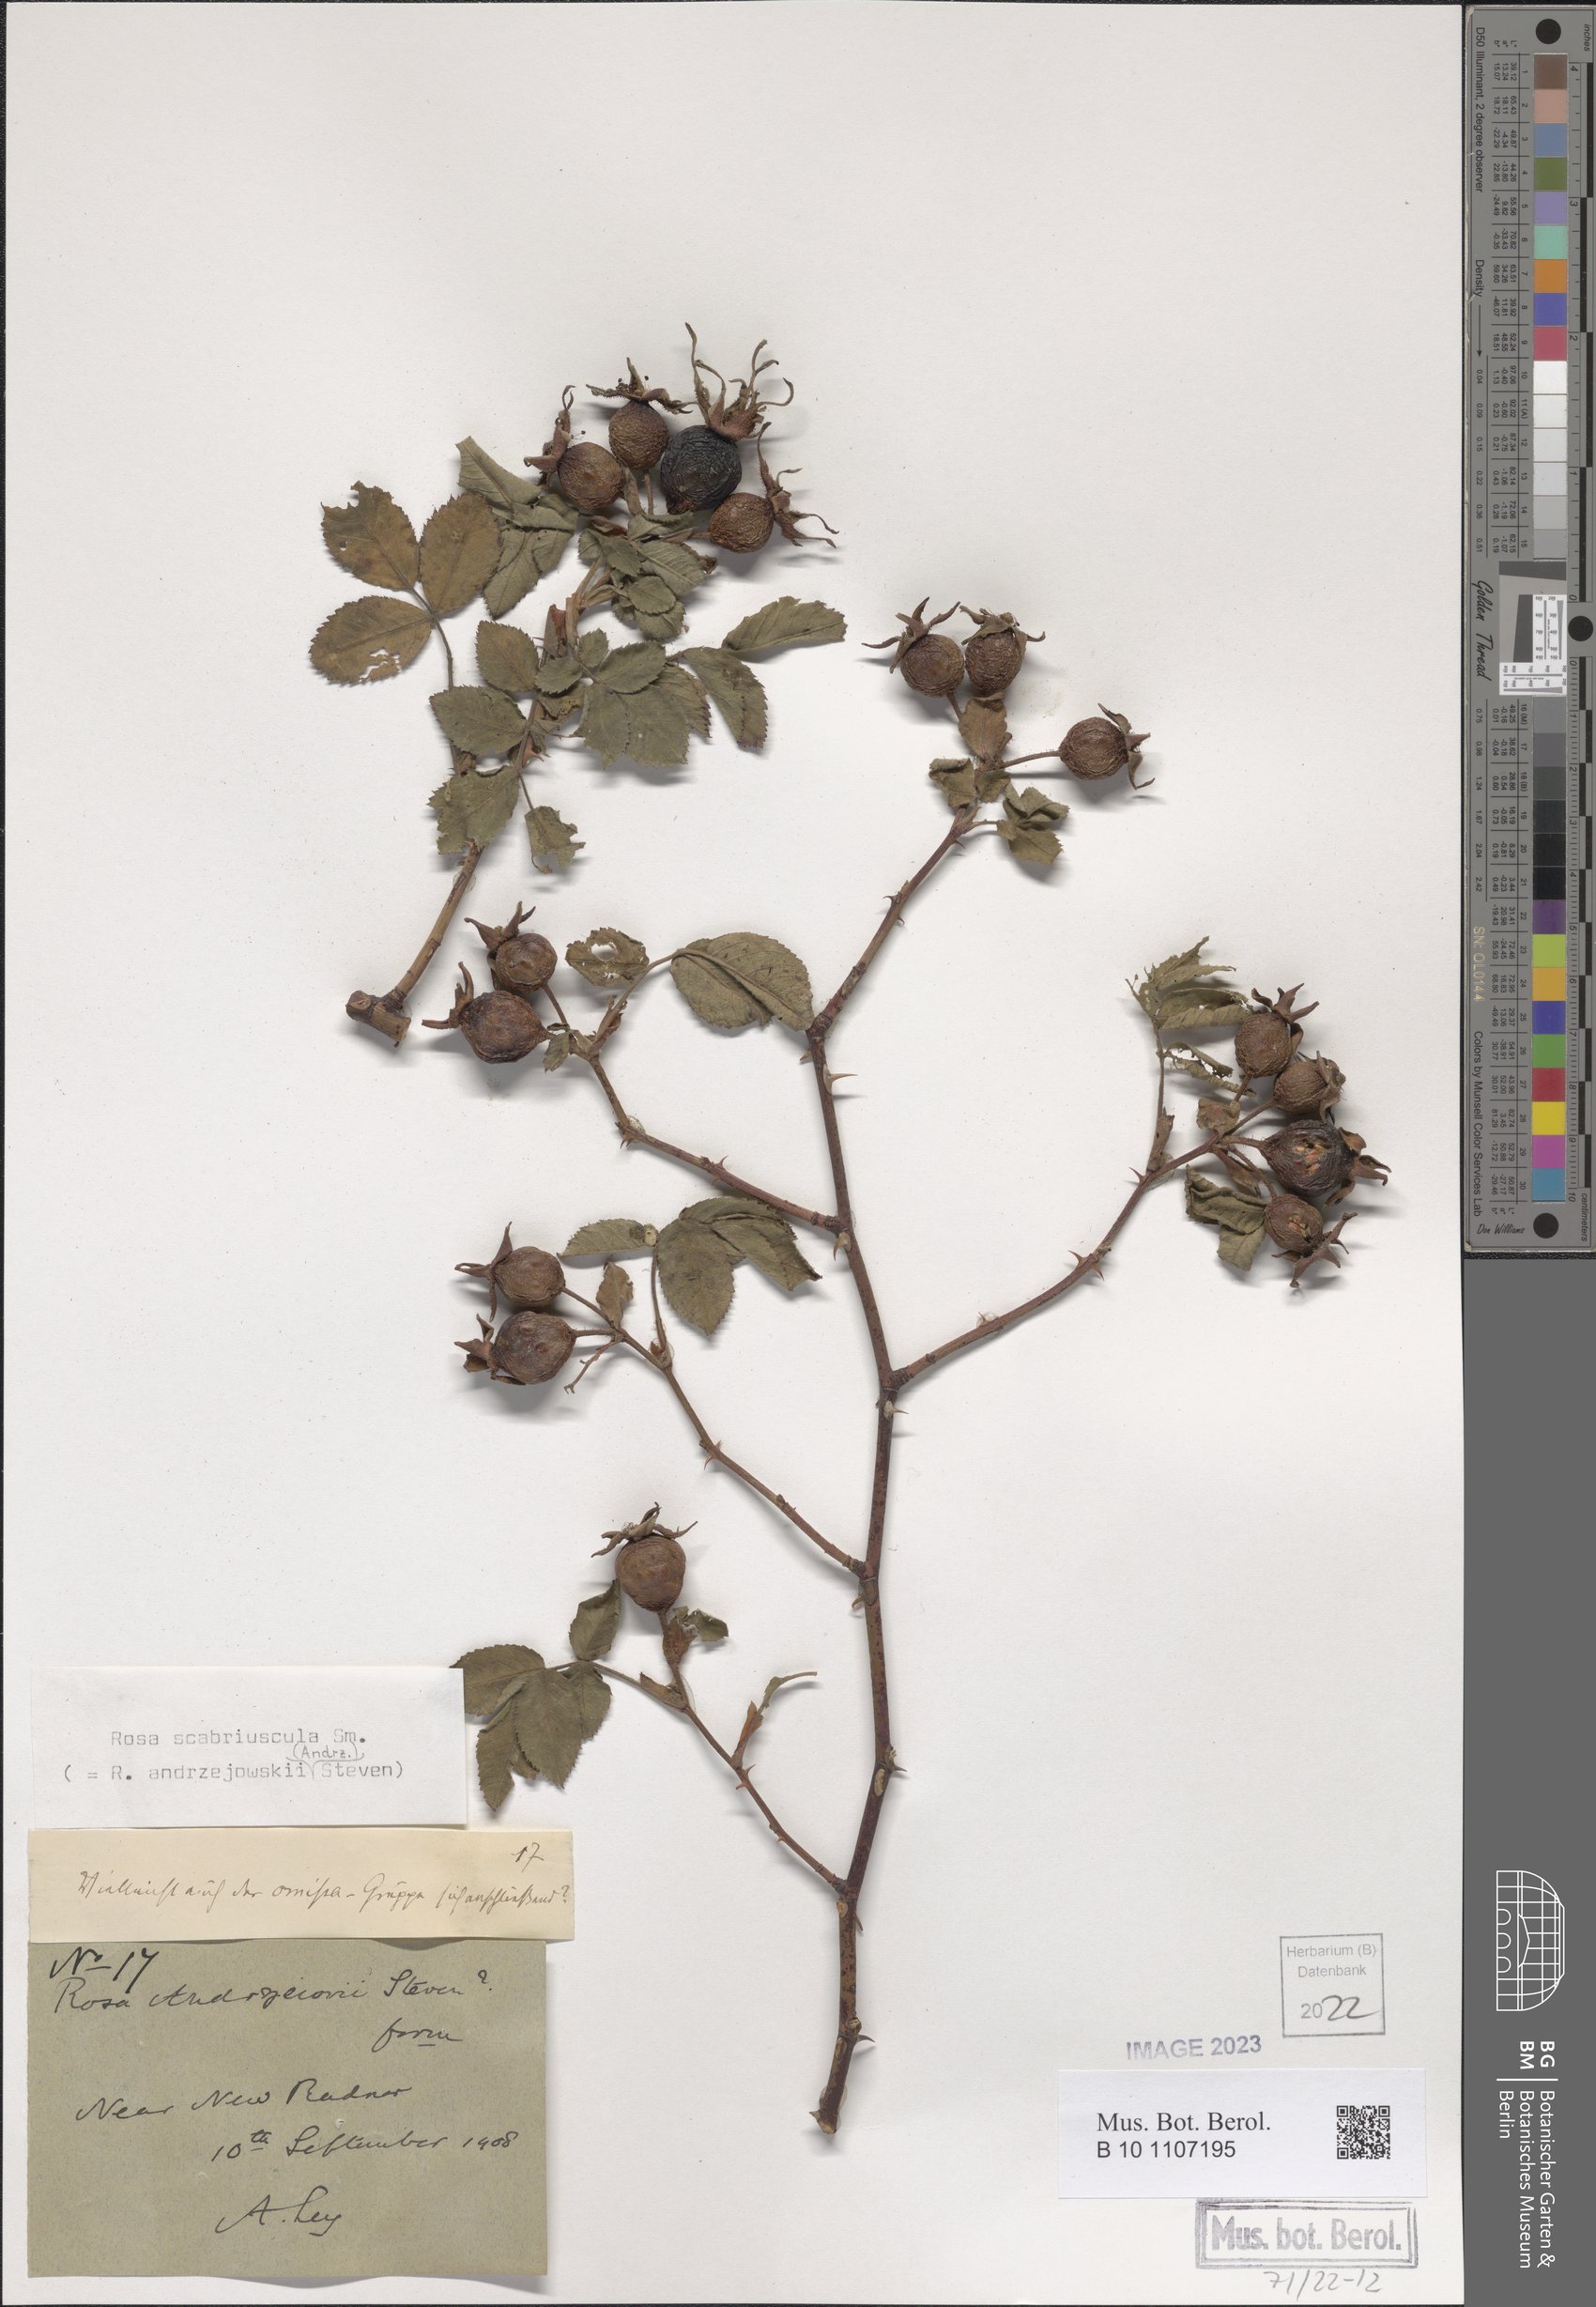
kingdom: Plantae
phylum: Tracheophyta
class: Magnoliopsida
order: Rosales
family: Rosaceae
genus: Rosa
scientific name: Rosa scabriuscula
